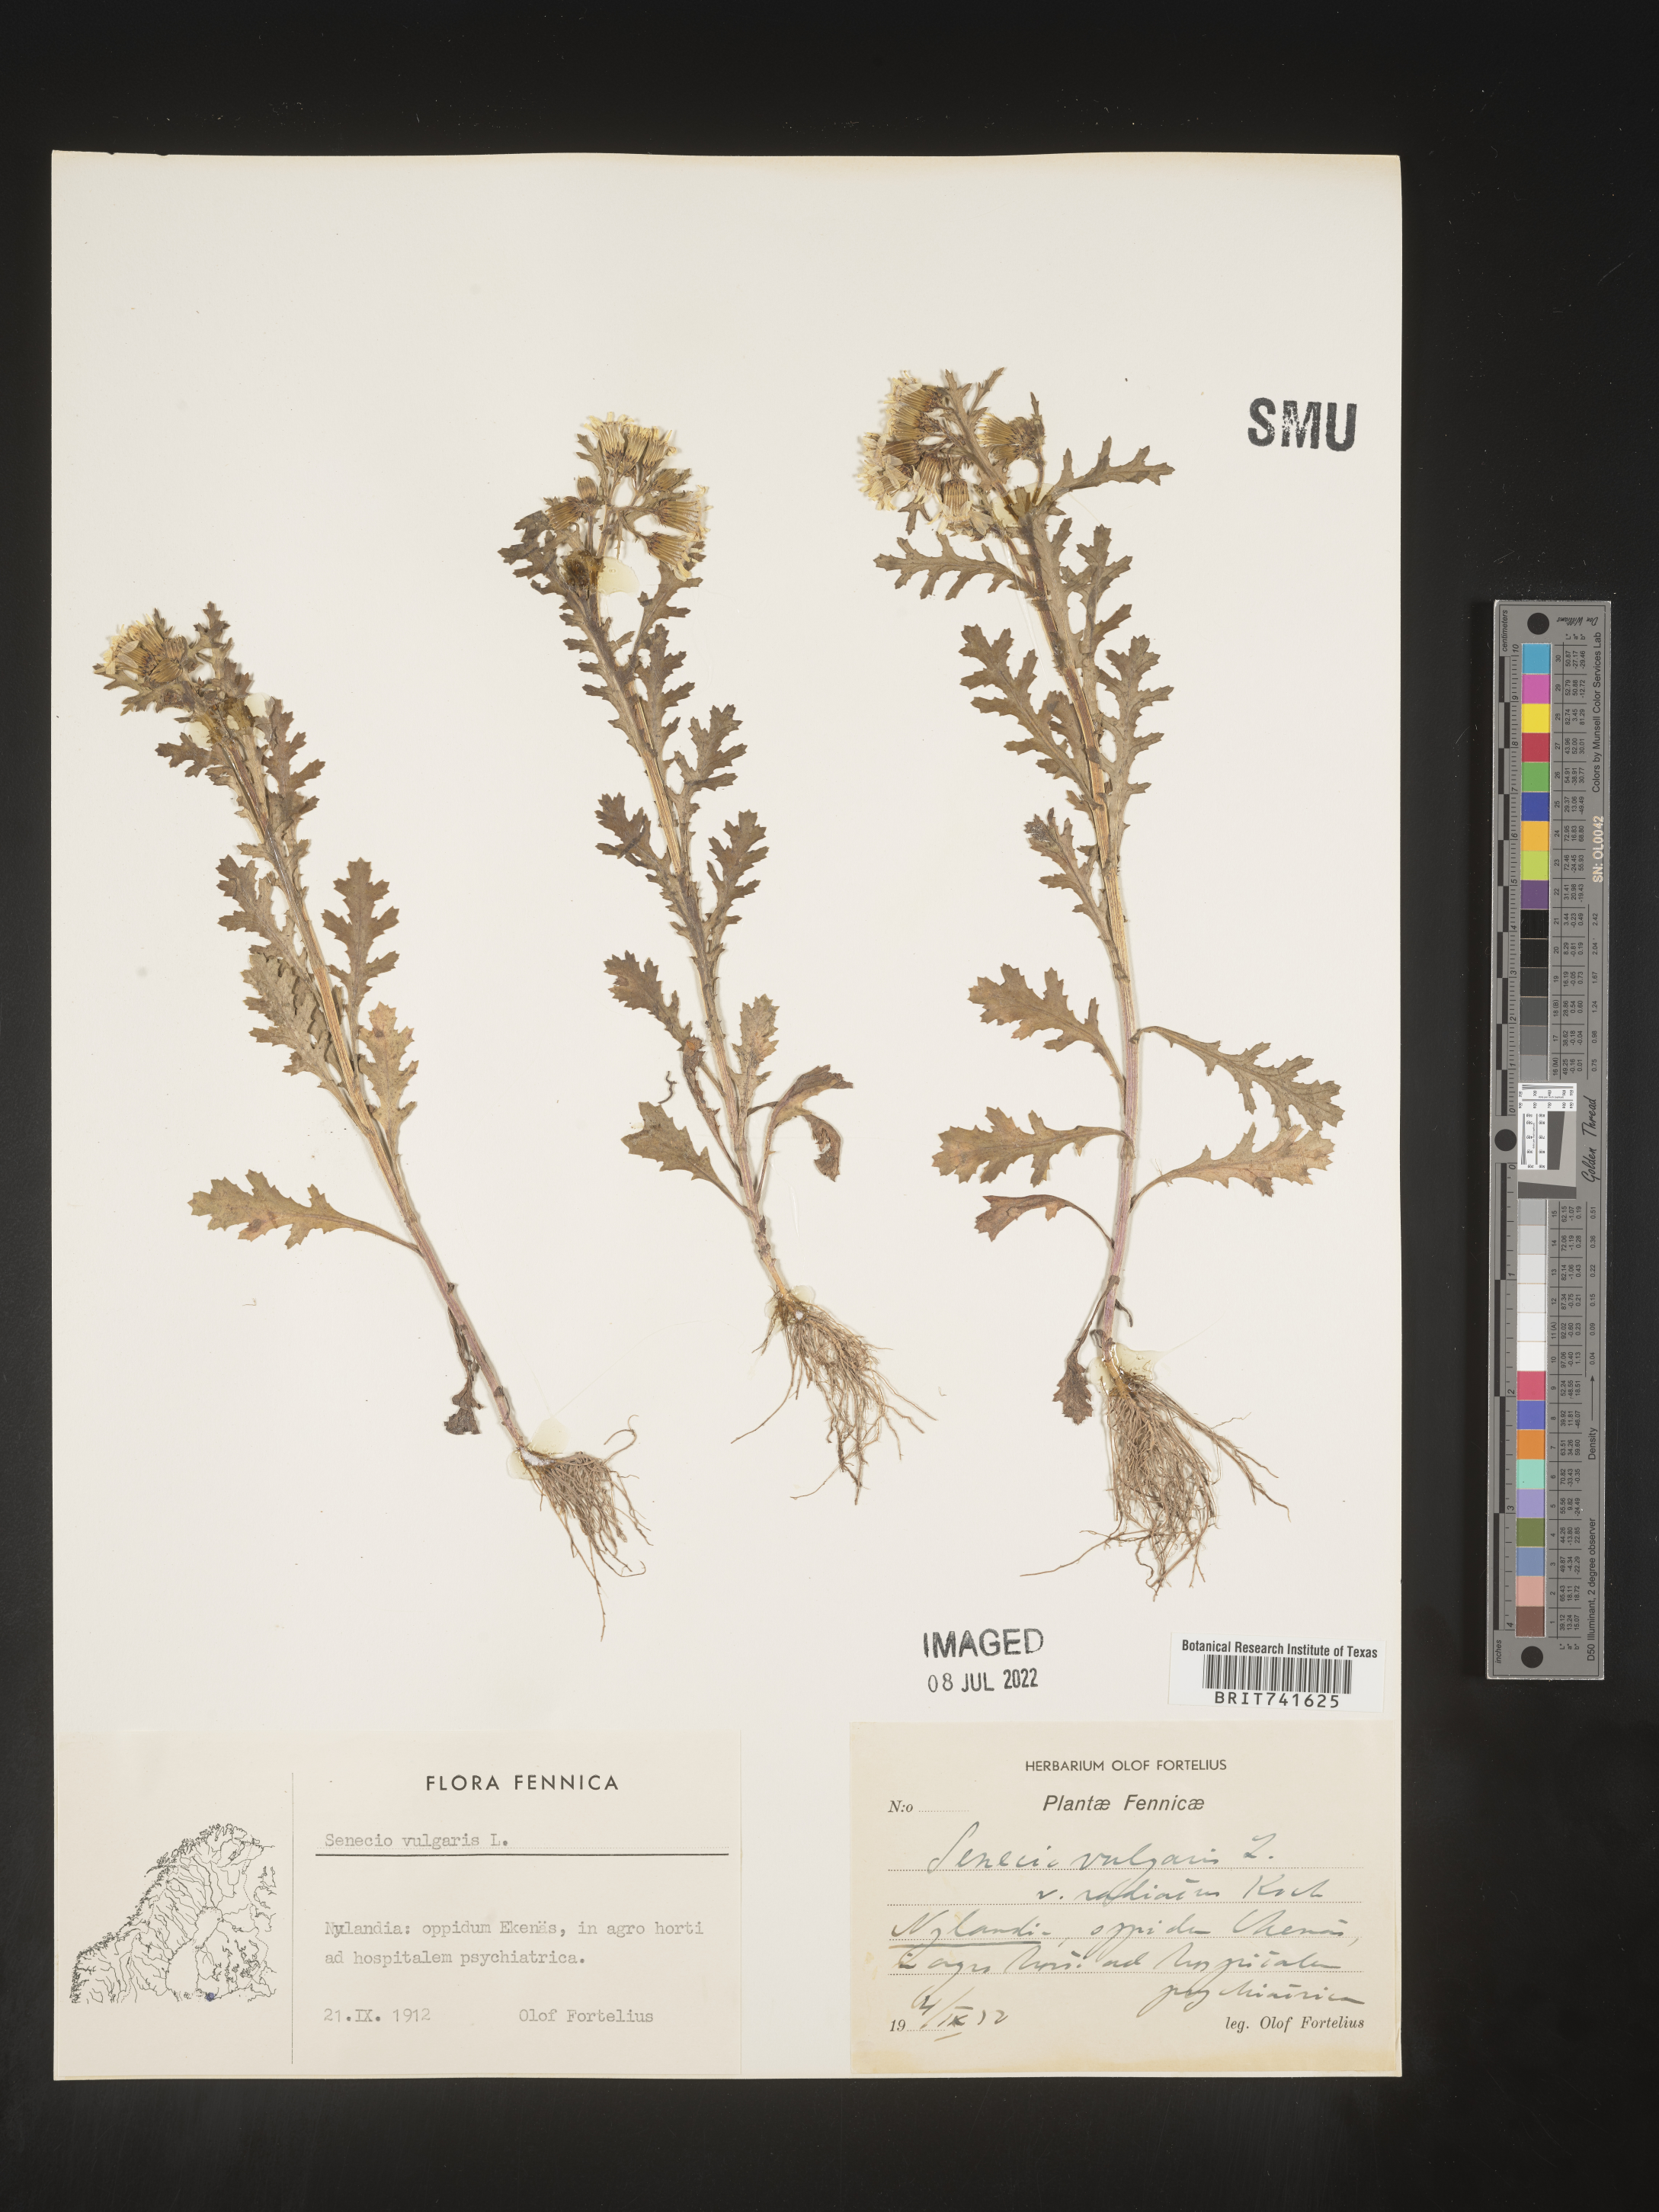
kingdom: Plantae
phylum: Tracheophyta
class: Magnoliopsida
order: Asterales
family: Asteraceae
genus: Senecio
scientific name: Senecio
